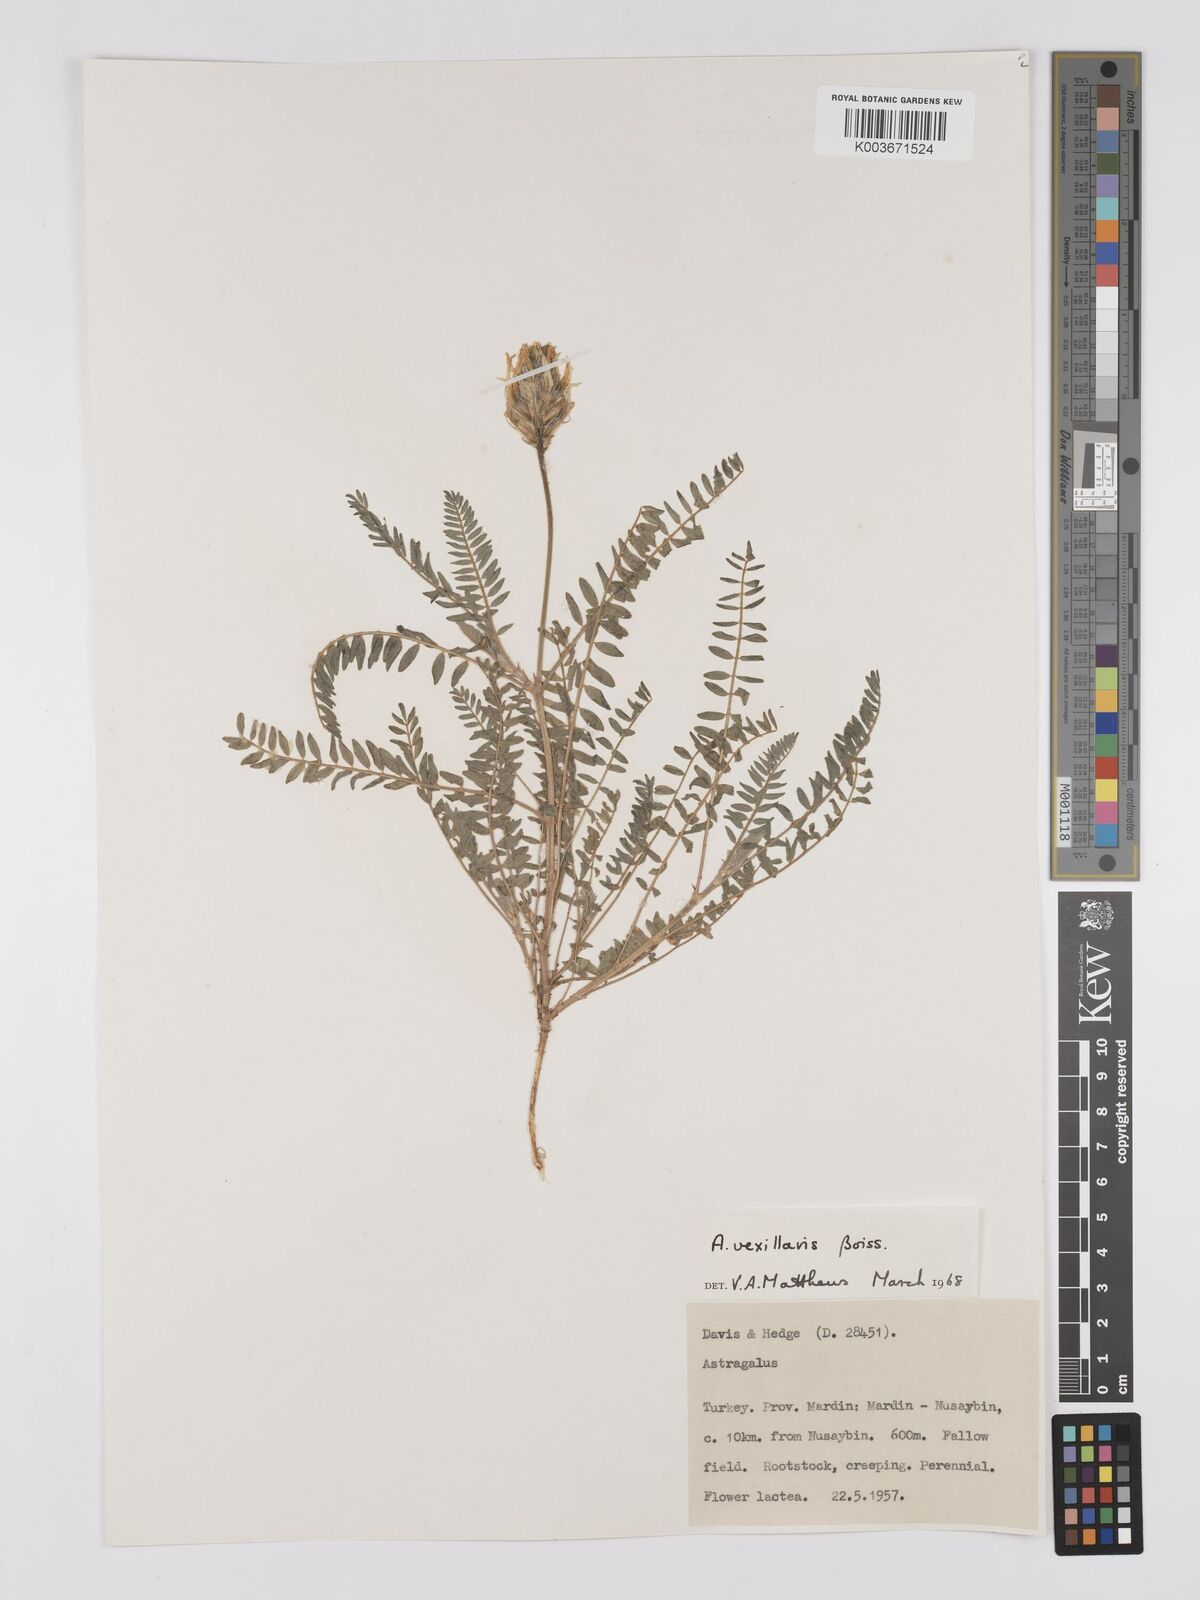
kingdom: Plantae
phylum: Tracheophyta
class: Magnoliopsida
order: Fabales
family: Fabaceae
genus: Astragalus
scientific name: Astragalus vexillaris
